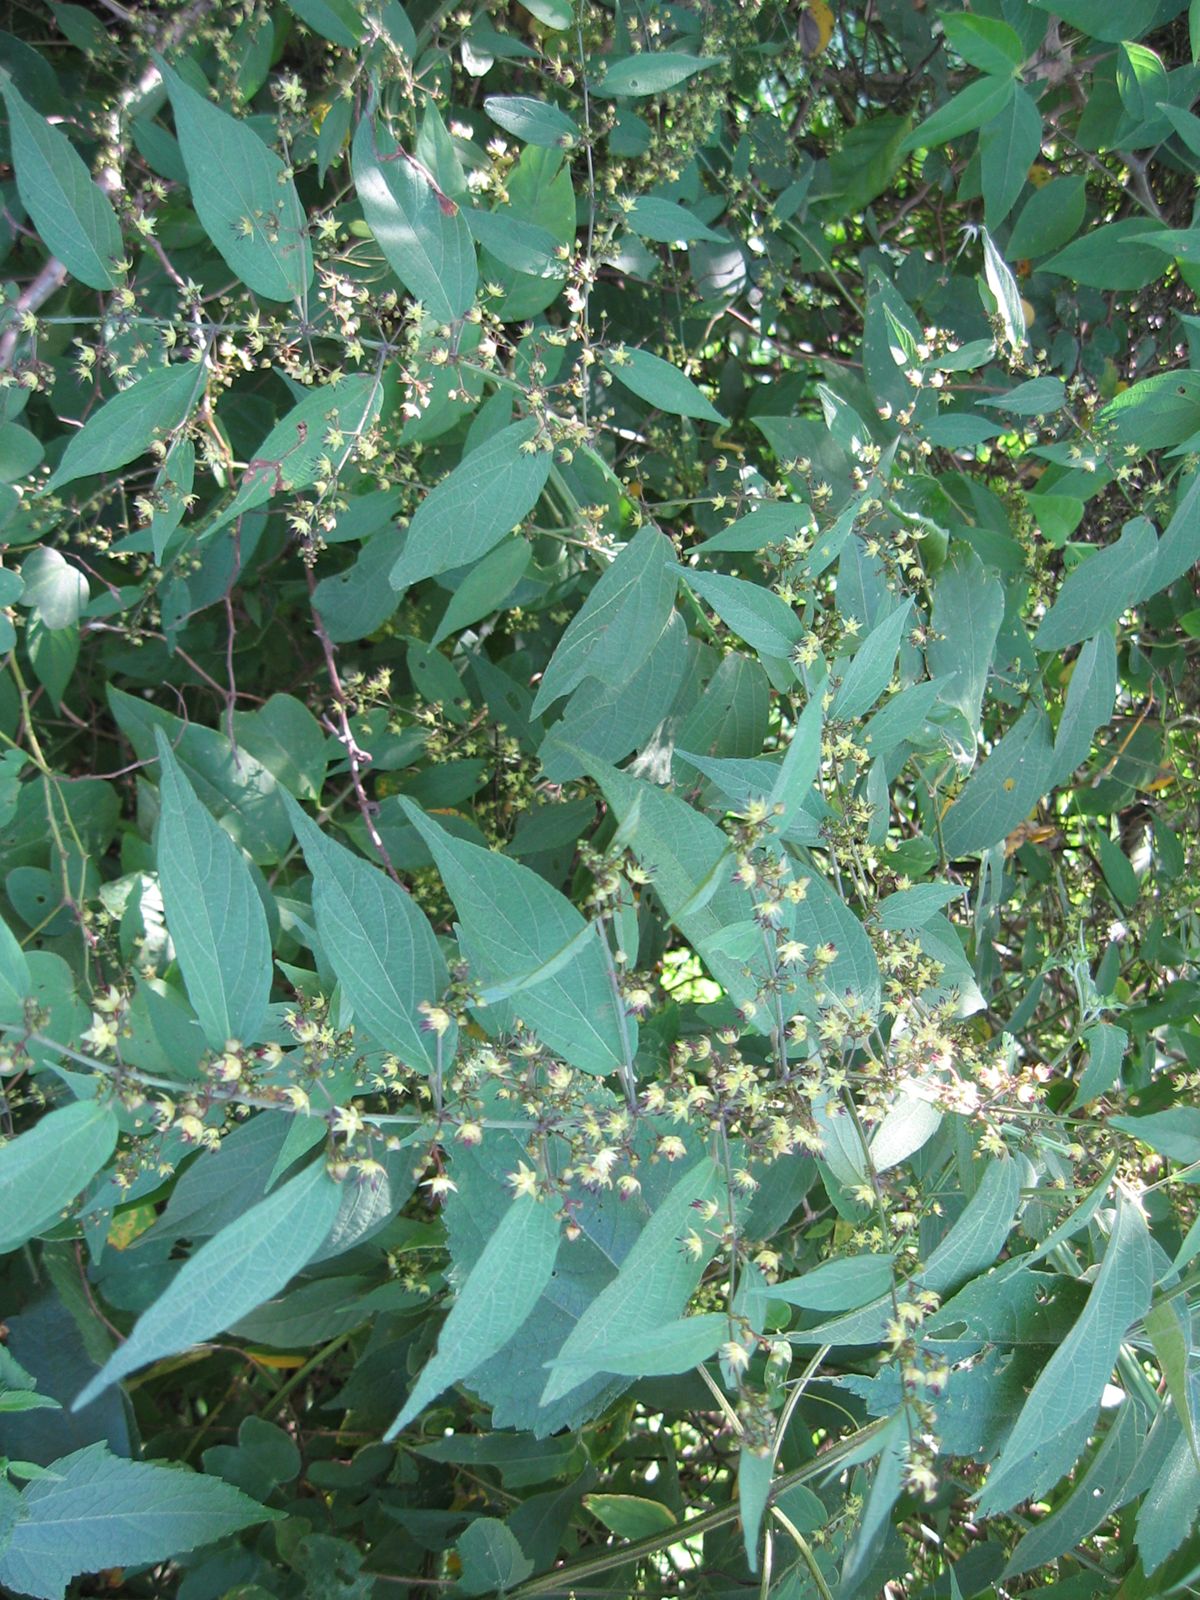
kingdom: Plantae
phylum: Tracheophyta
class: Magnoliopsida
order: Malvales
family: Malvaceae
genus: Byttneria
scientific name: Byttneria aculeata
